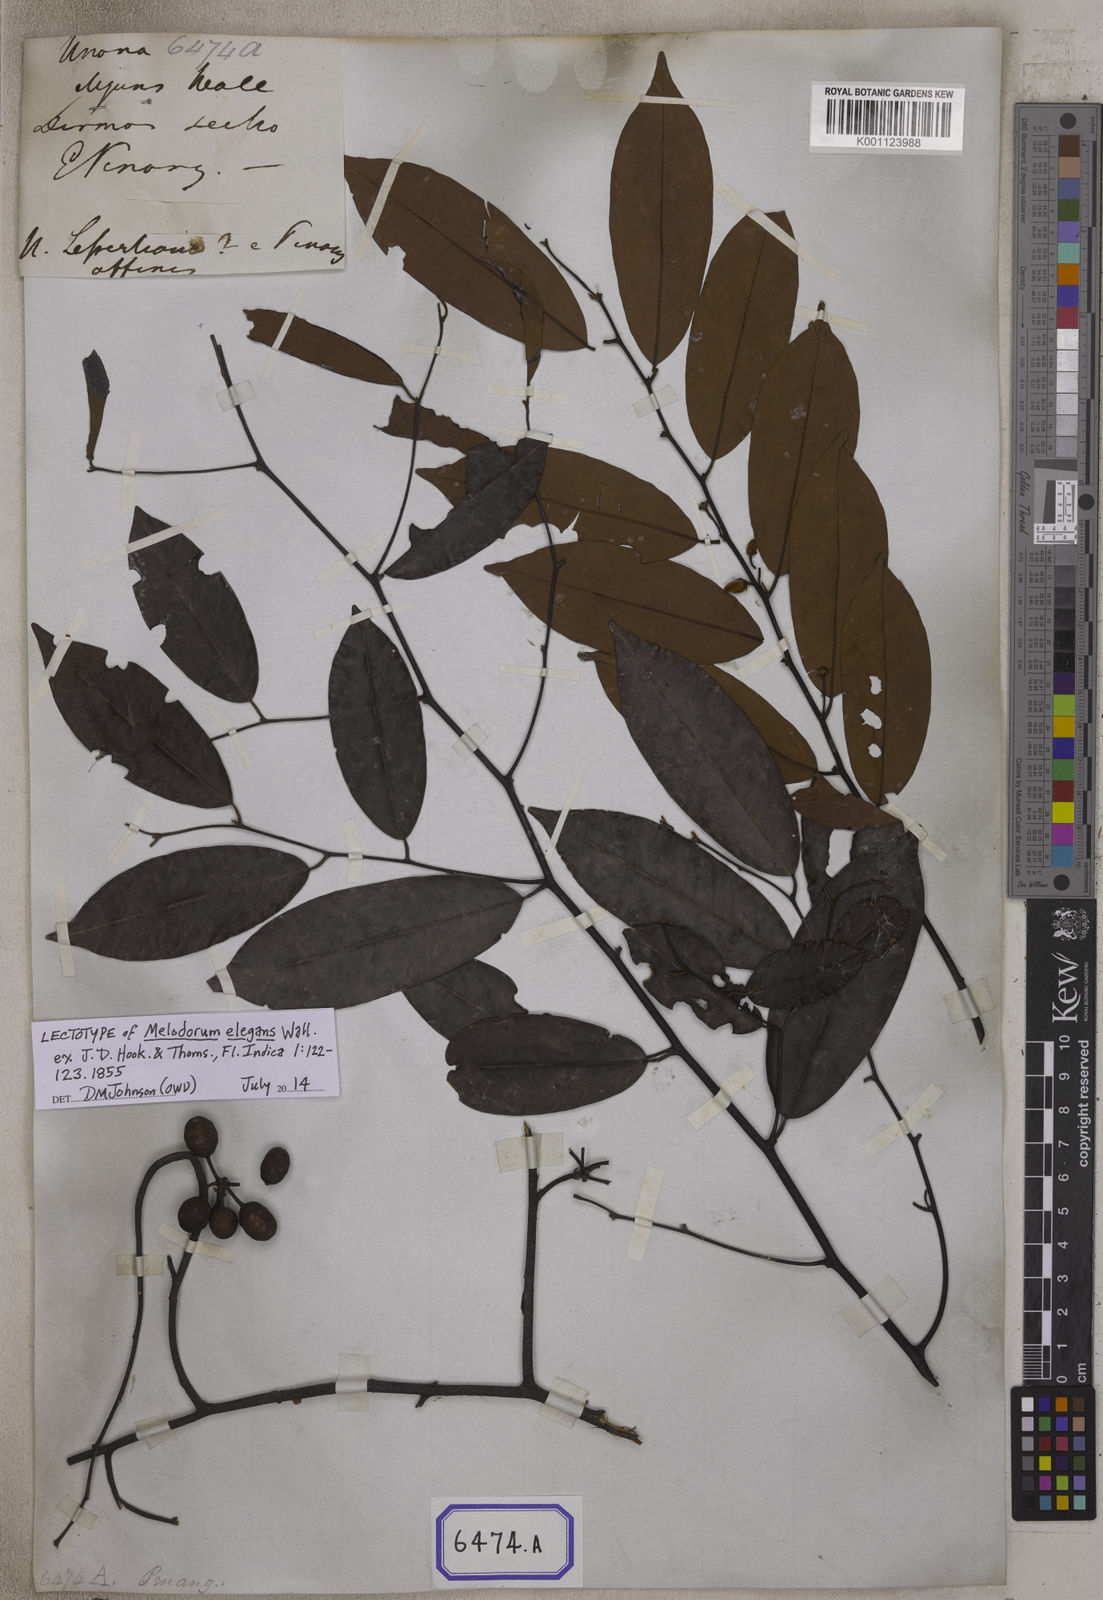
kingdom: Plantae
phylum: Tracheophyta
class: Magnoliopsida
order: Magnoliales
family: Annonaceae
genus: Mitrella
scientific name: Mitrella kentii
